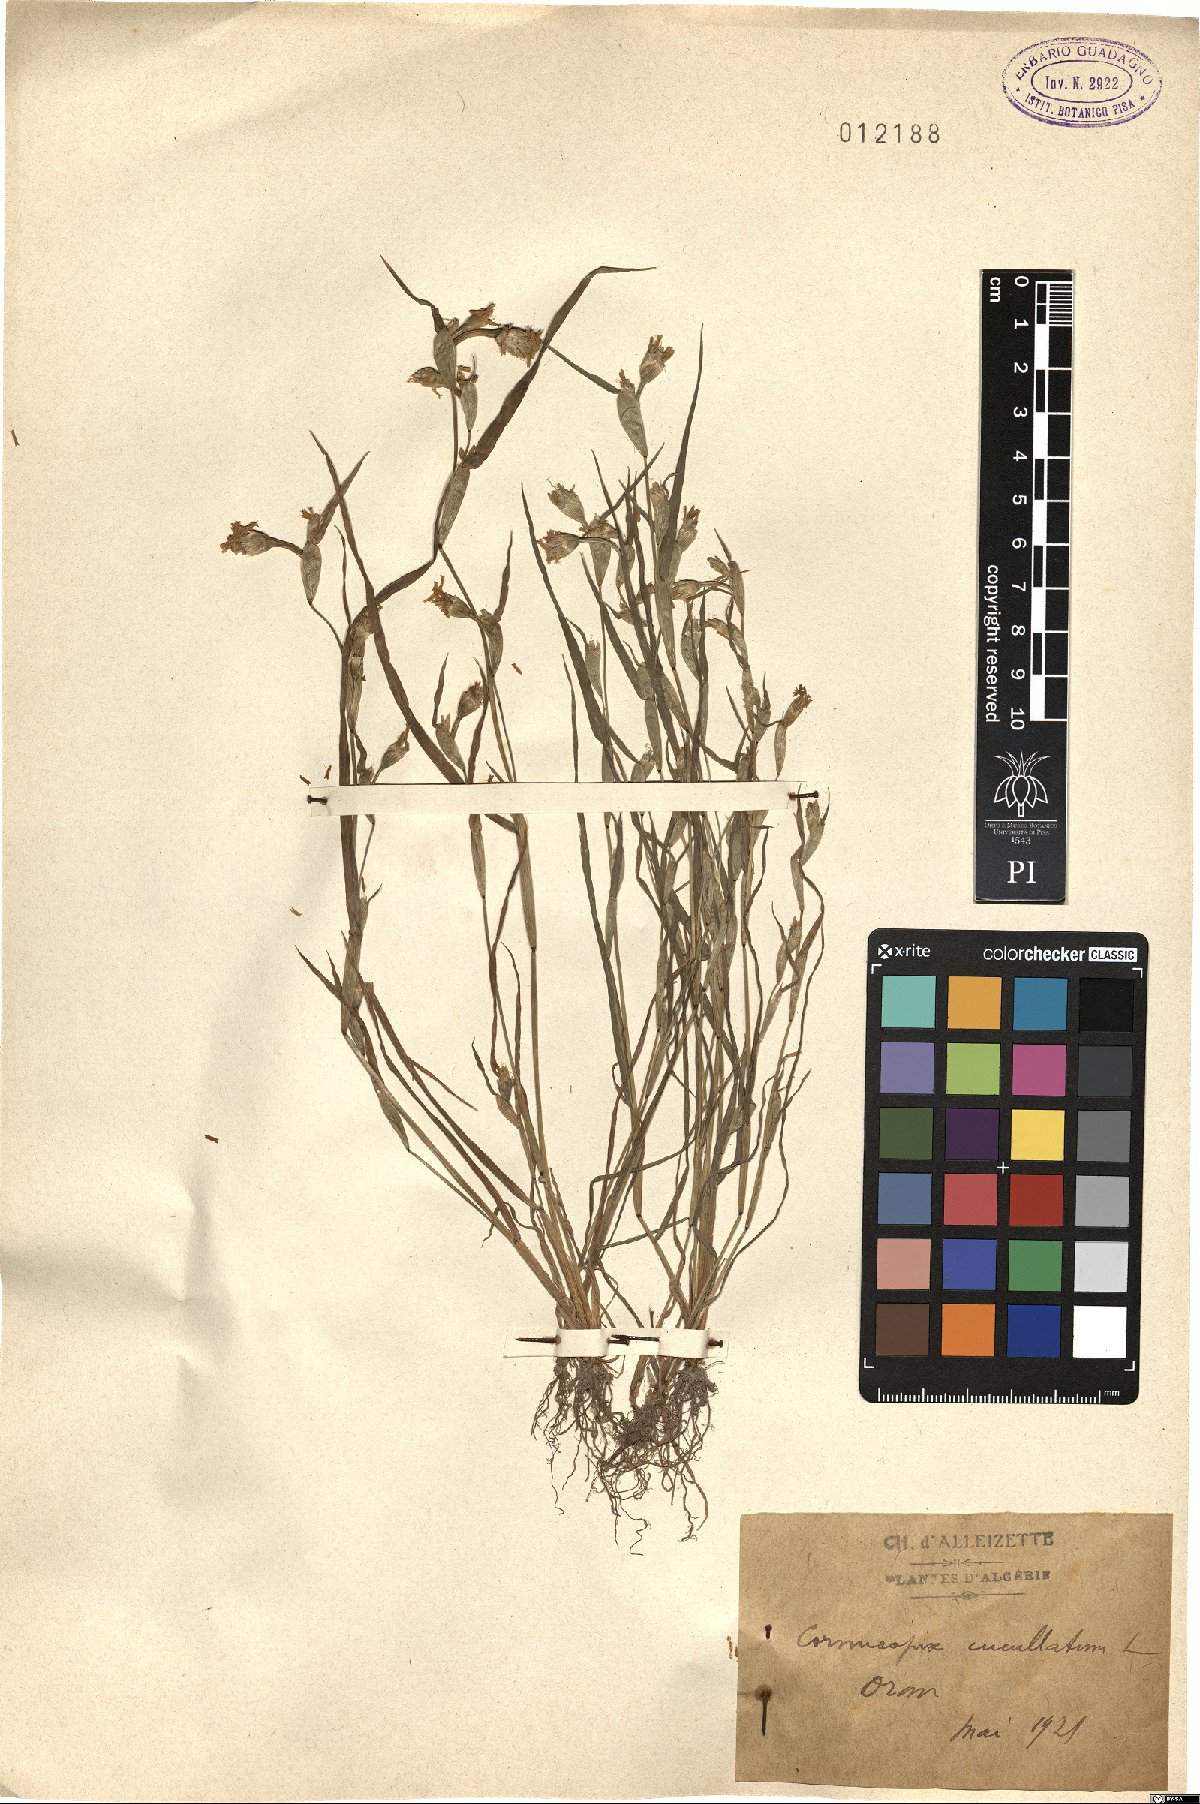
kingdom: Plantae
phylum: Tracheophyta
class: Liliopsida
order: Poales
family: Poaceae
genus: Cornucopiae
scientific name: Cornucopiae cucullatum
